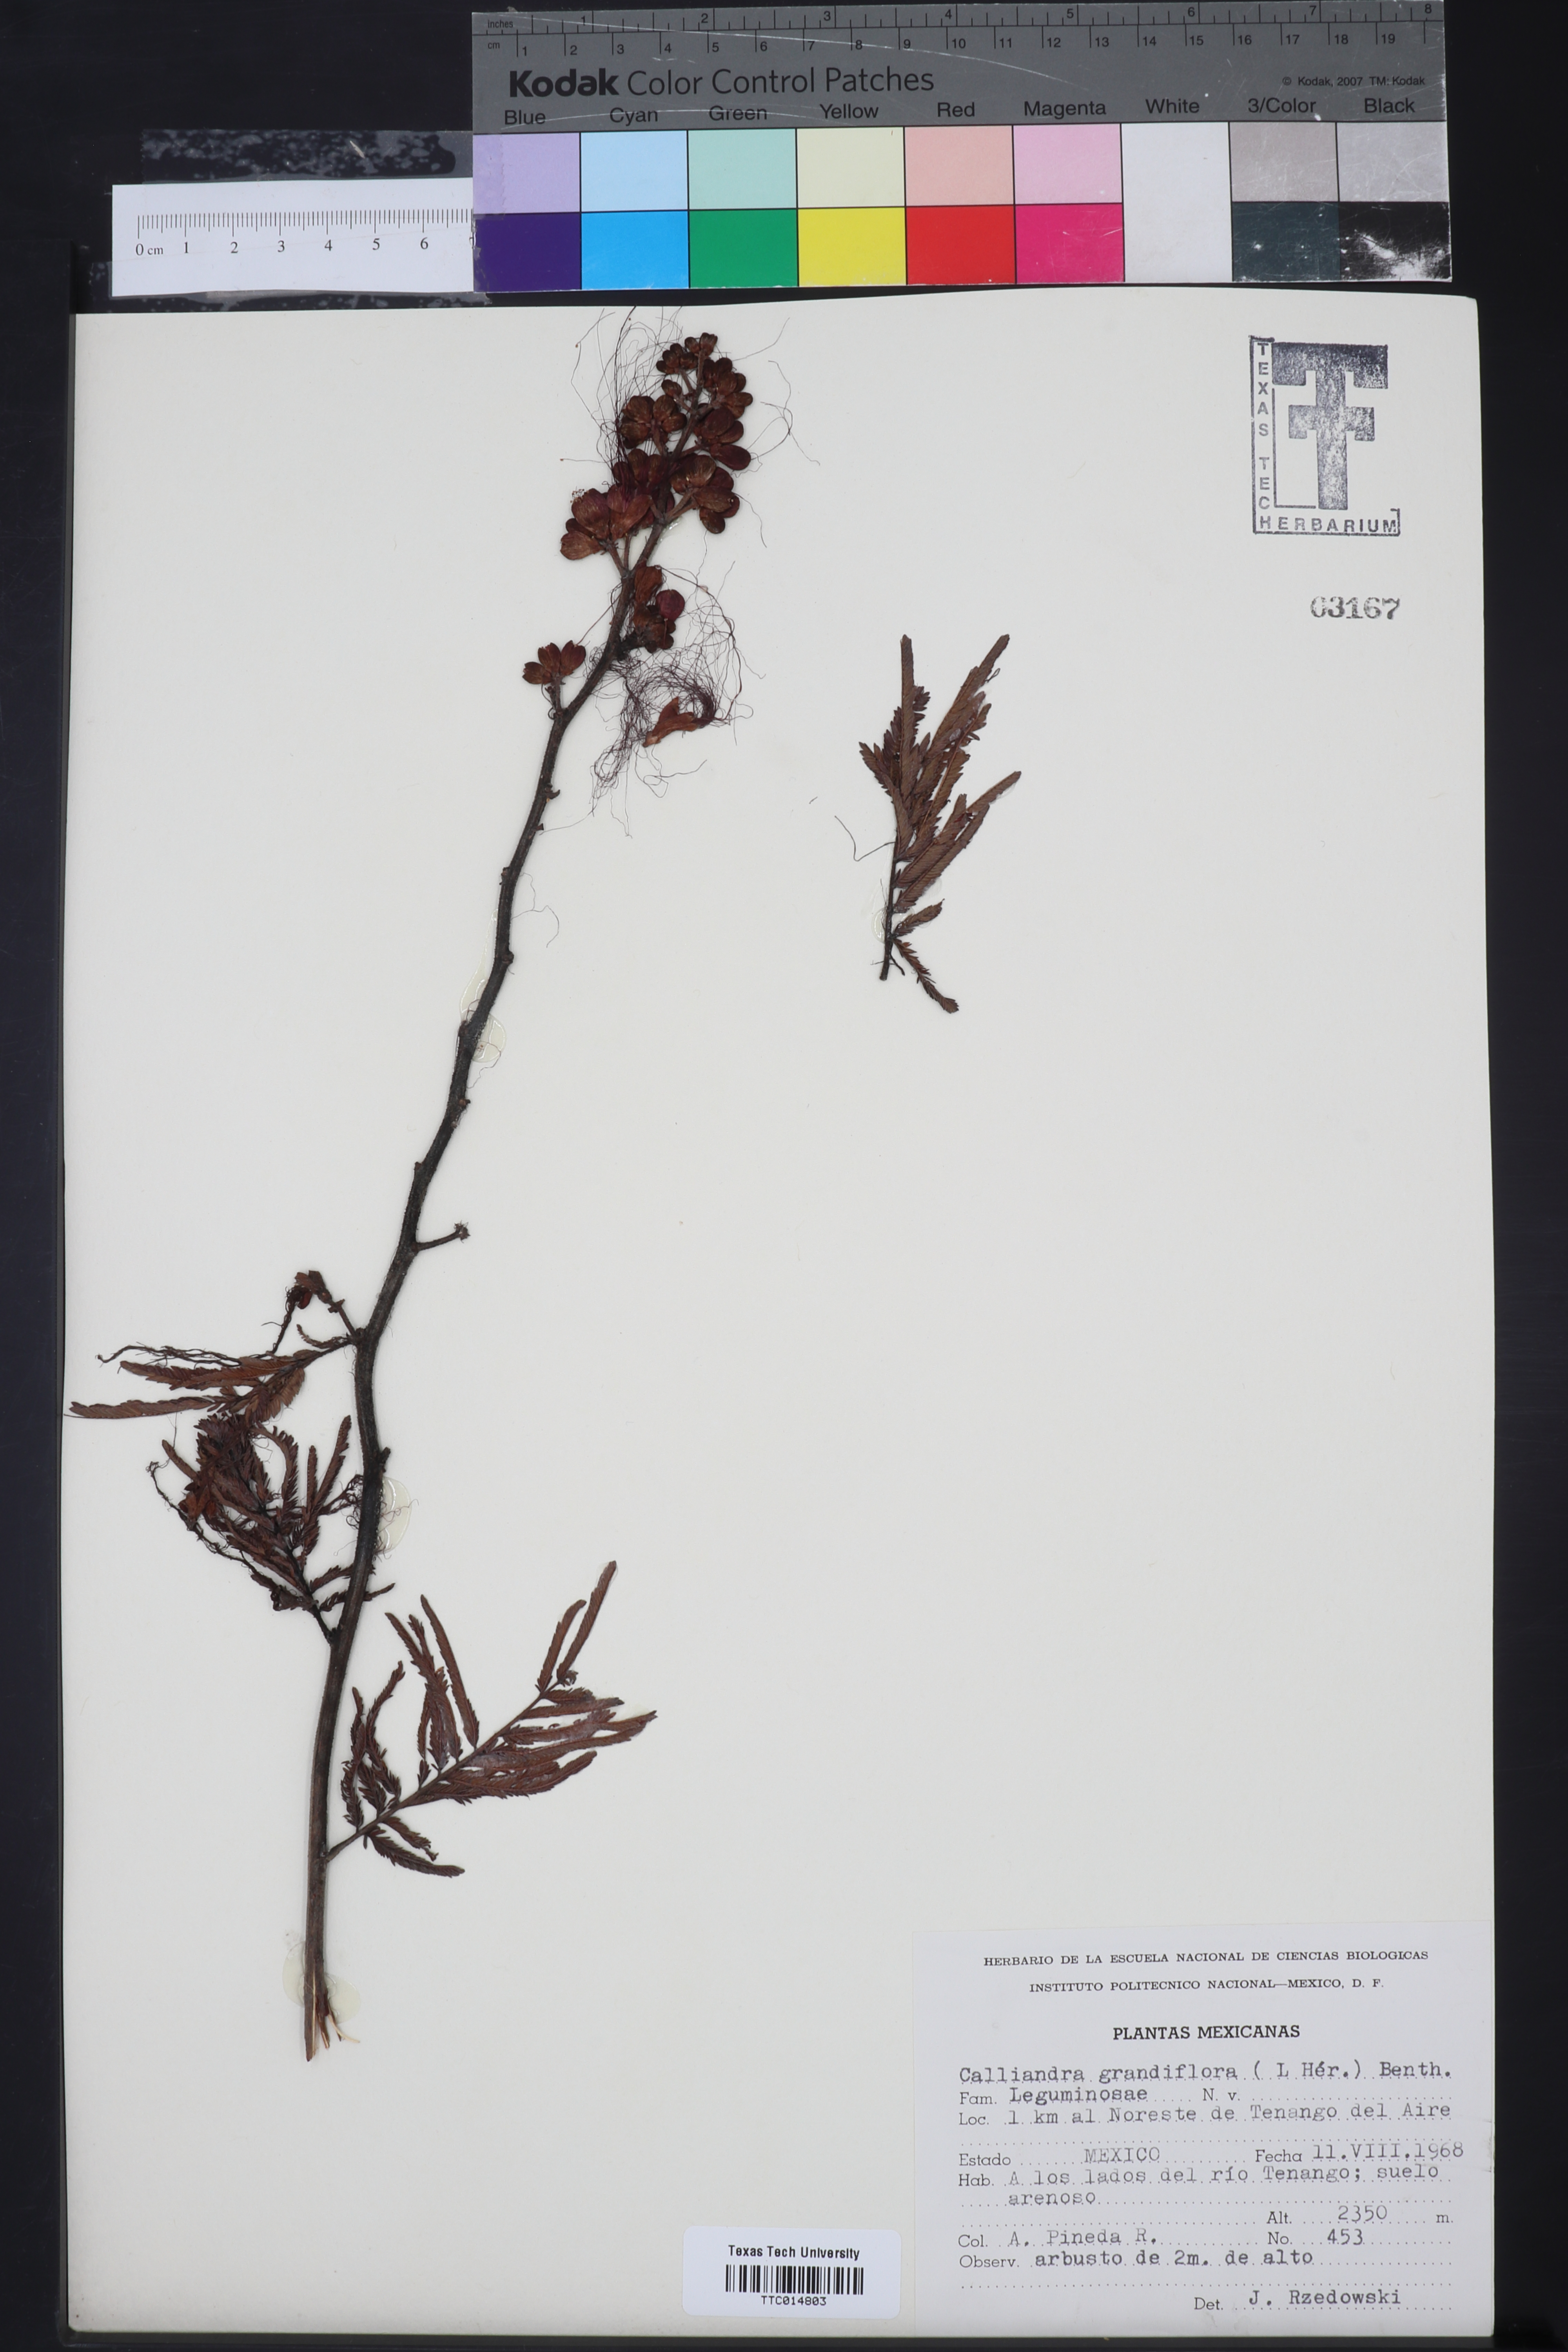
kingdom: Plantae
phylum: Tracheophyta
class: Magnoliopsida
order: Fabales
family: Fabaceae
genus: Calliandra
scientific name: Calliandra houstoniana
